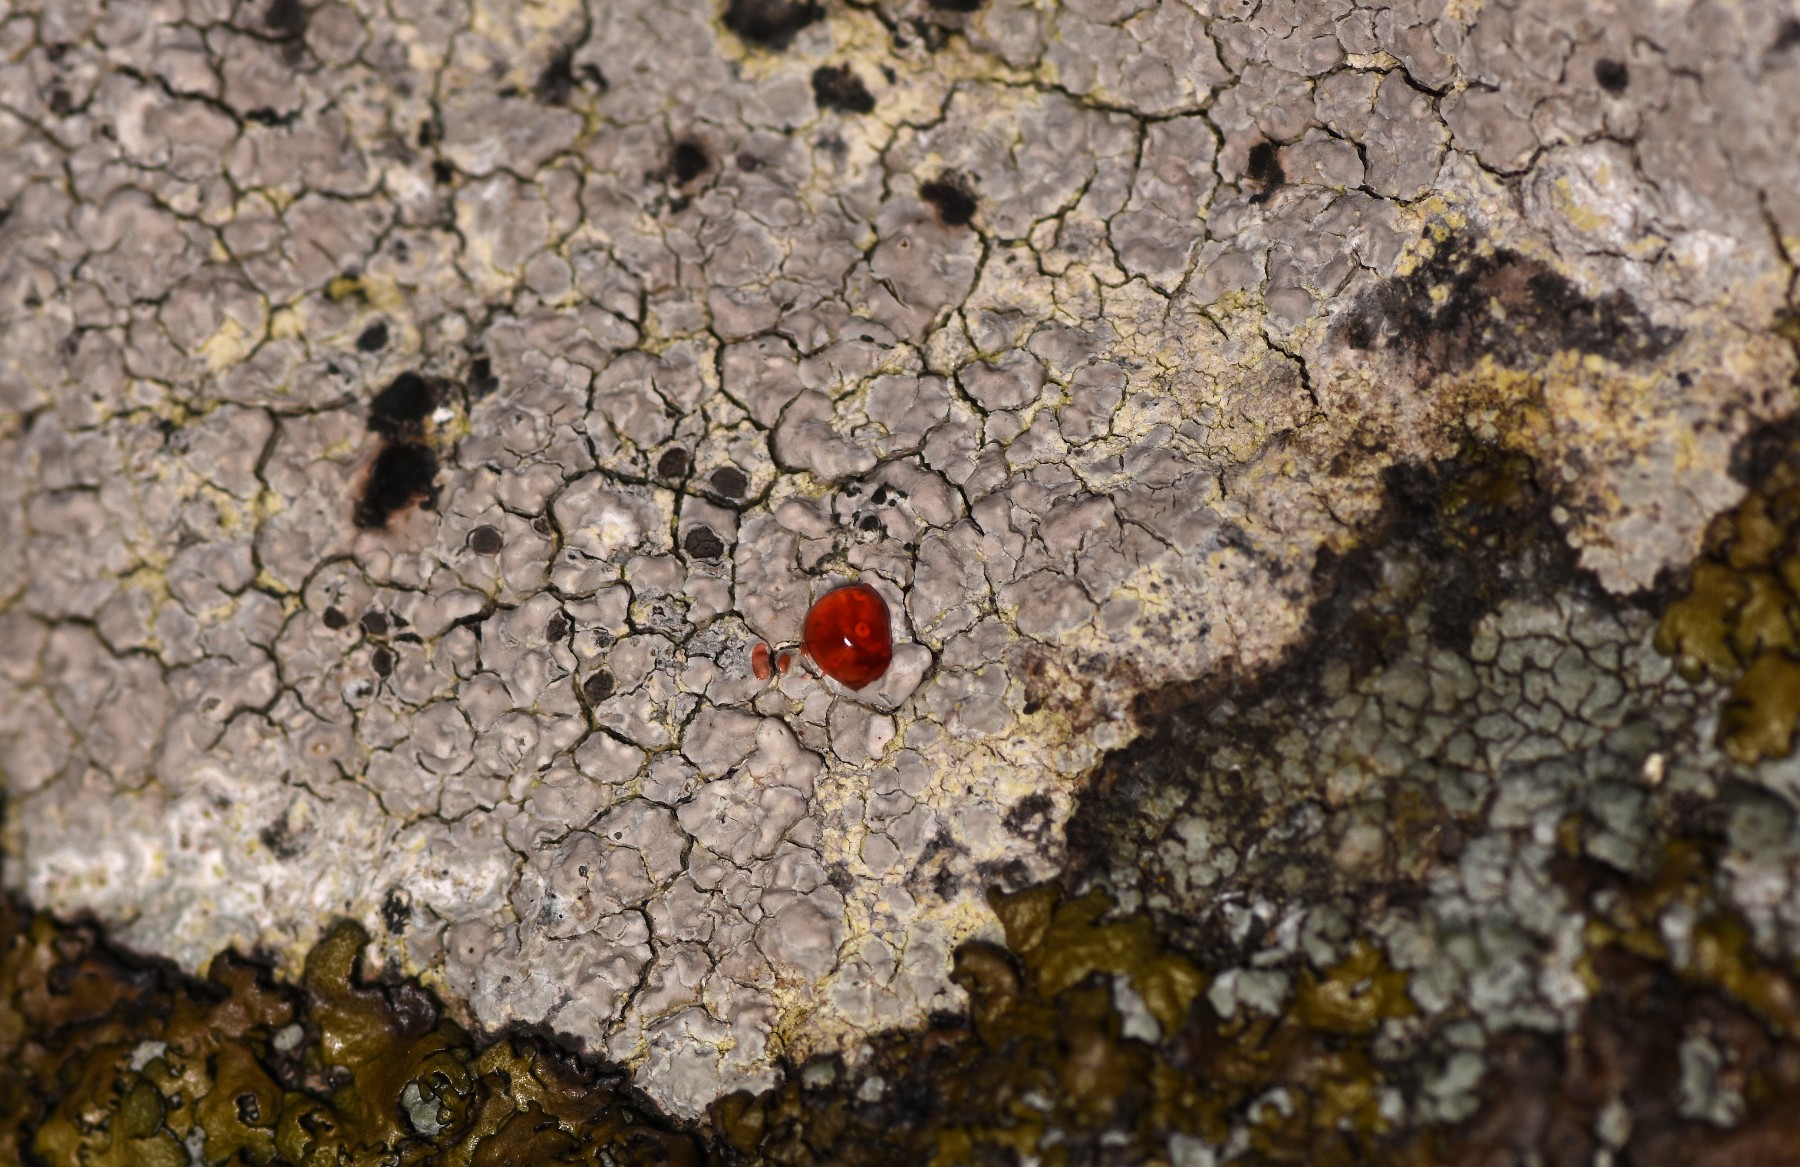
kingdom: Fungi
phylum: Ascomycota
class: Lecanoromycetes
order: Baeomycetales
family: Trapeliaceae
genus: Kleopowiella
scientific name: Kleopowiella placodioides
